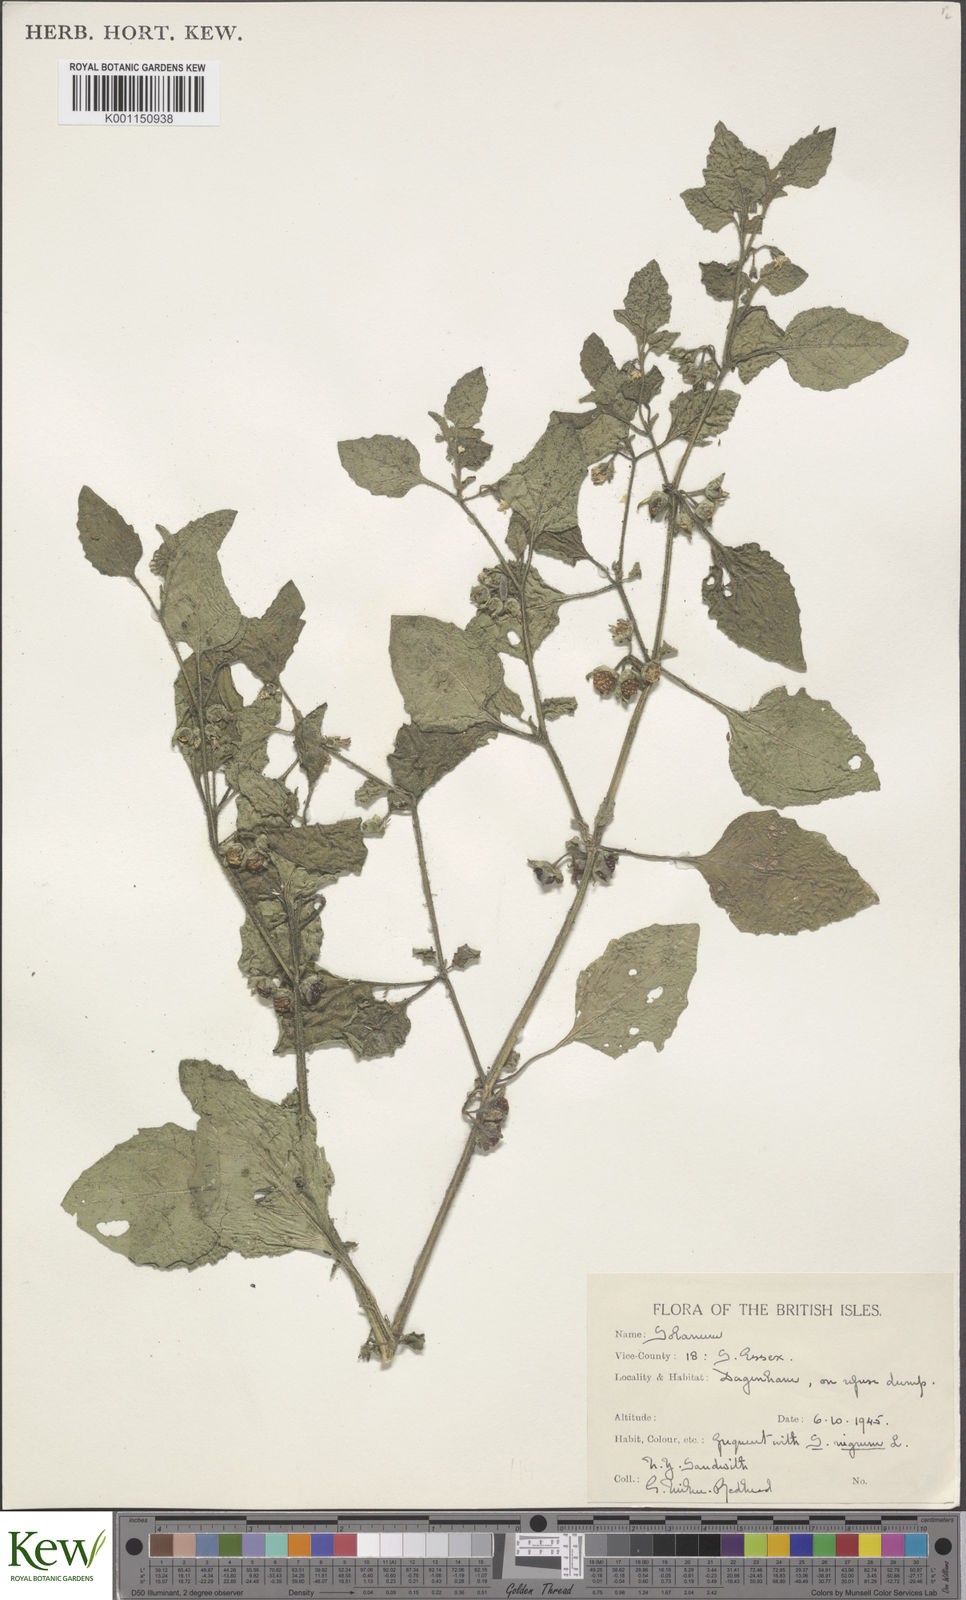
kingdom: Plantae
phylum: Tracheophyta
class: Magnoliopsida
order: Solanales
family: Solanaceae
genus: Solanum
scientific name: Solanum sarrachoides
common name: Leafy-fruited nightshade
